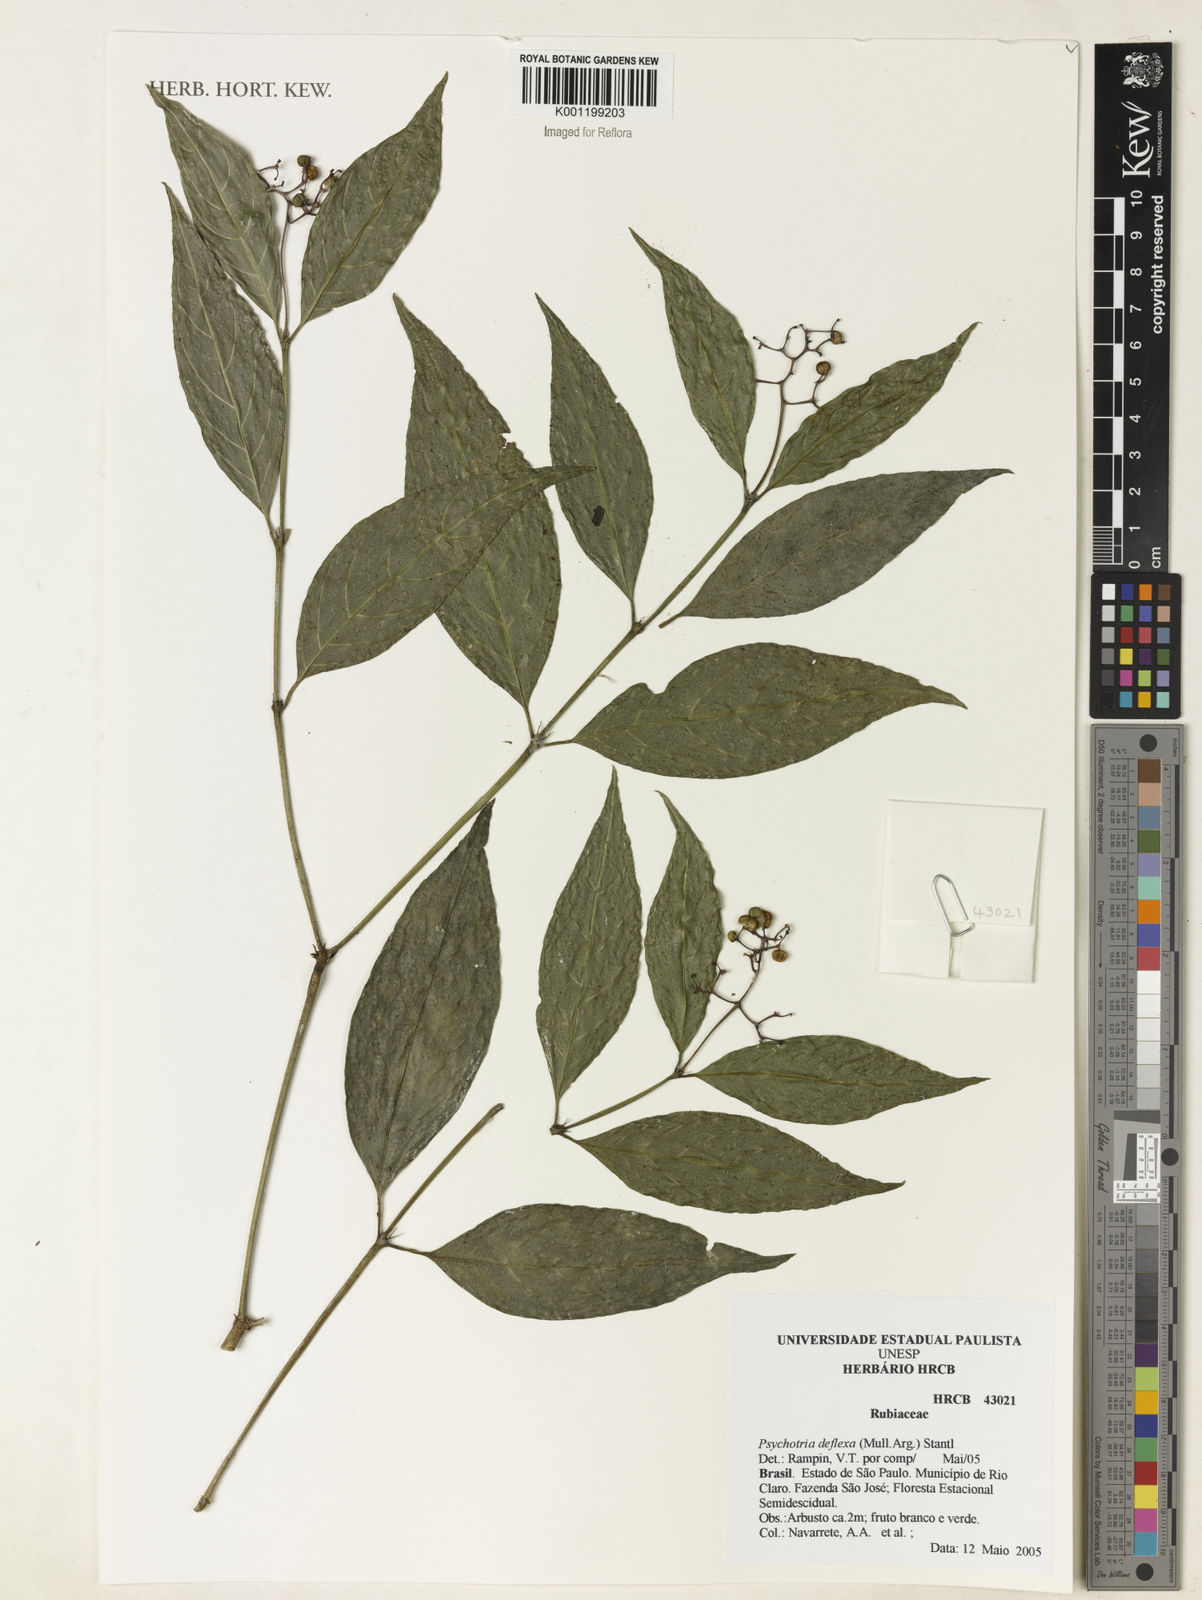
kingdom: Plantae
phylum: Tracheophyta
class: Magnoliopsida
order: Gentianales
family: Rubiaceae
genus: Palicourea
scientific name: Palicourea deflexa
